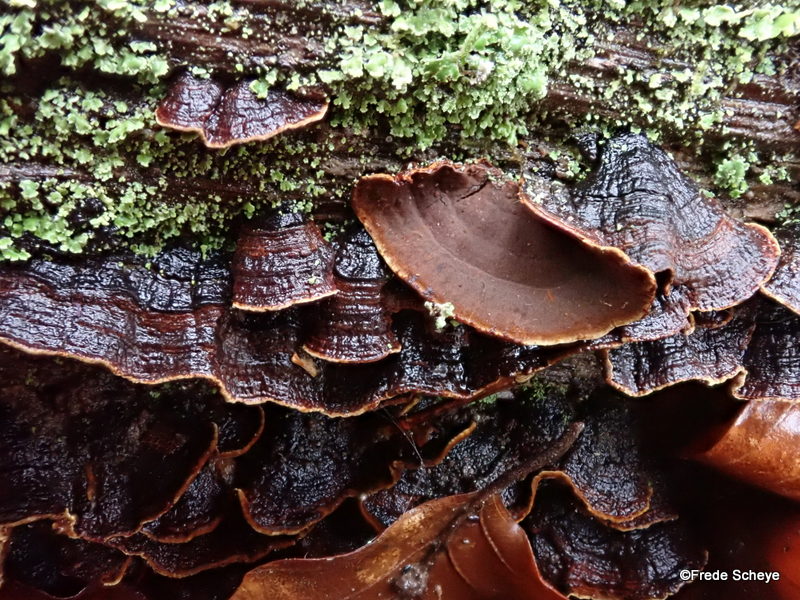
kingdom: Fungi
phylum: Basidiomycota
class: Agaricomycetes
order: Hymenochaetales
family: Hymenochaetaceae
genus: Hymenochaete
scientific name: Hymenochaete rubiginosa
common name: stiv ruslædersvamp
